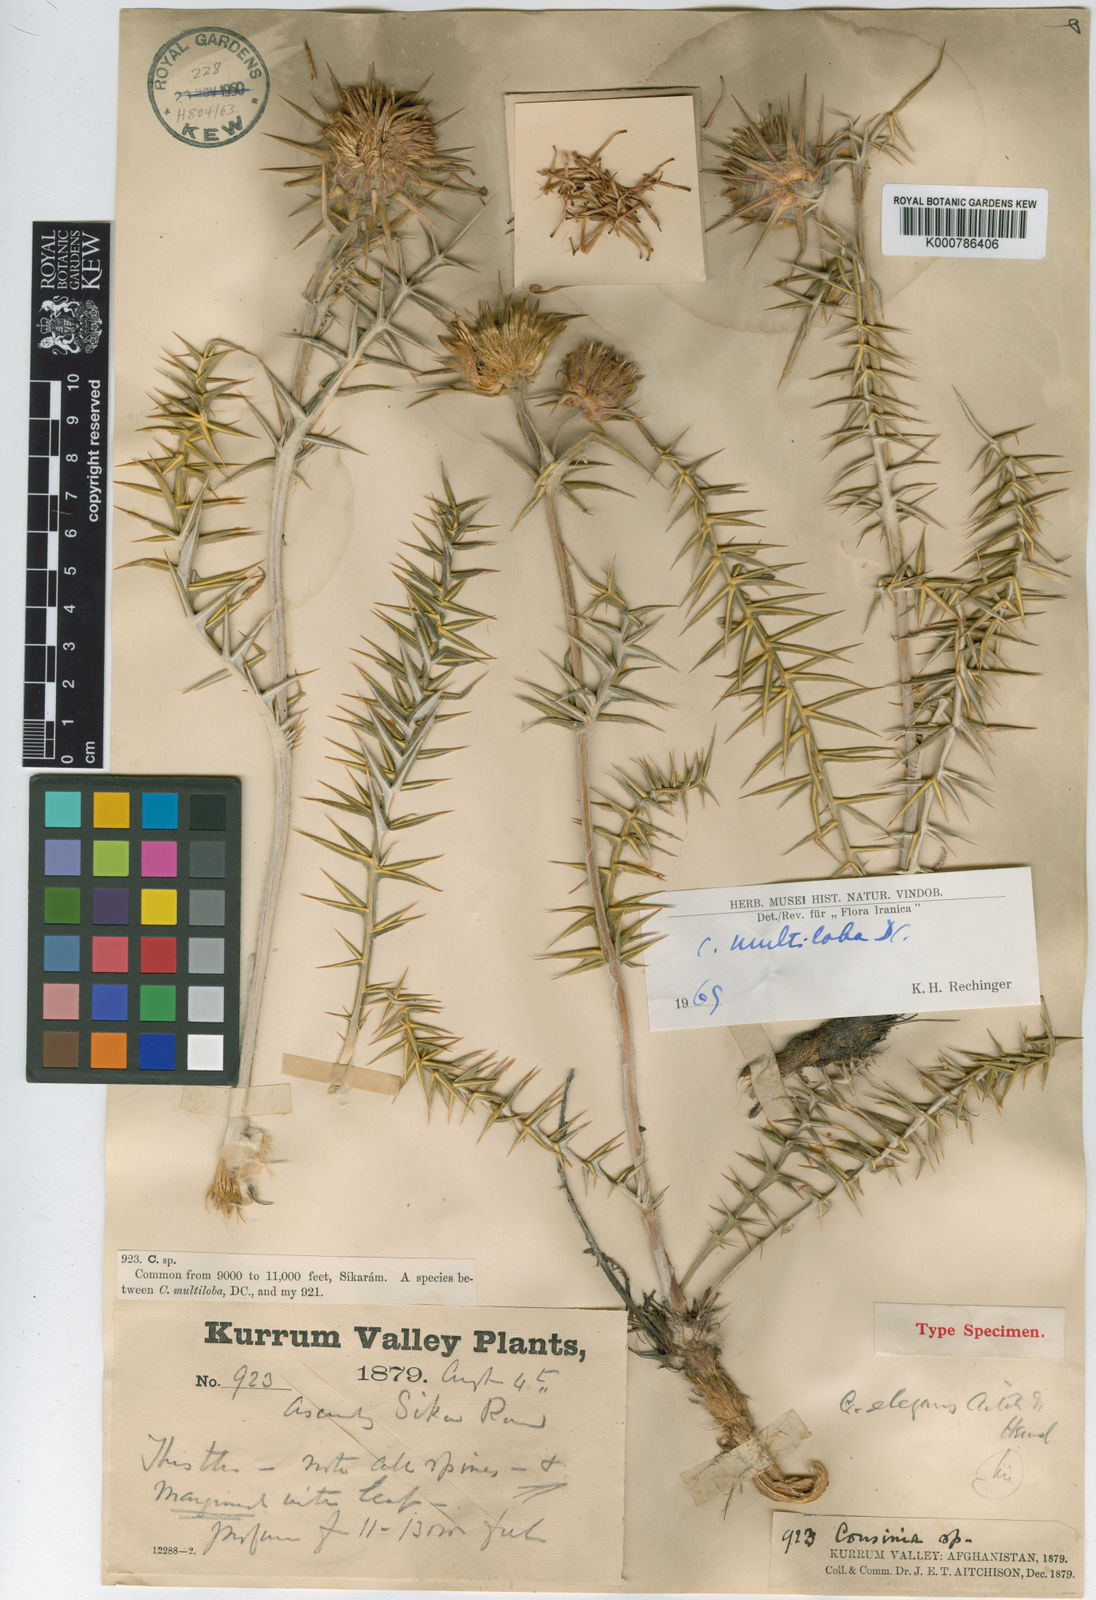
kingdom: Plantae
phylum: Tracheophyta
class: Magnoliopsida
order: Asterales
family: Asteraceae
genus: Cousinia
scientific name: Cousinia multiloba
